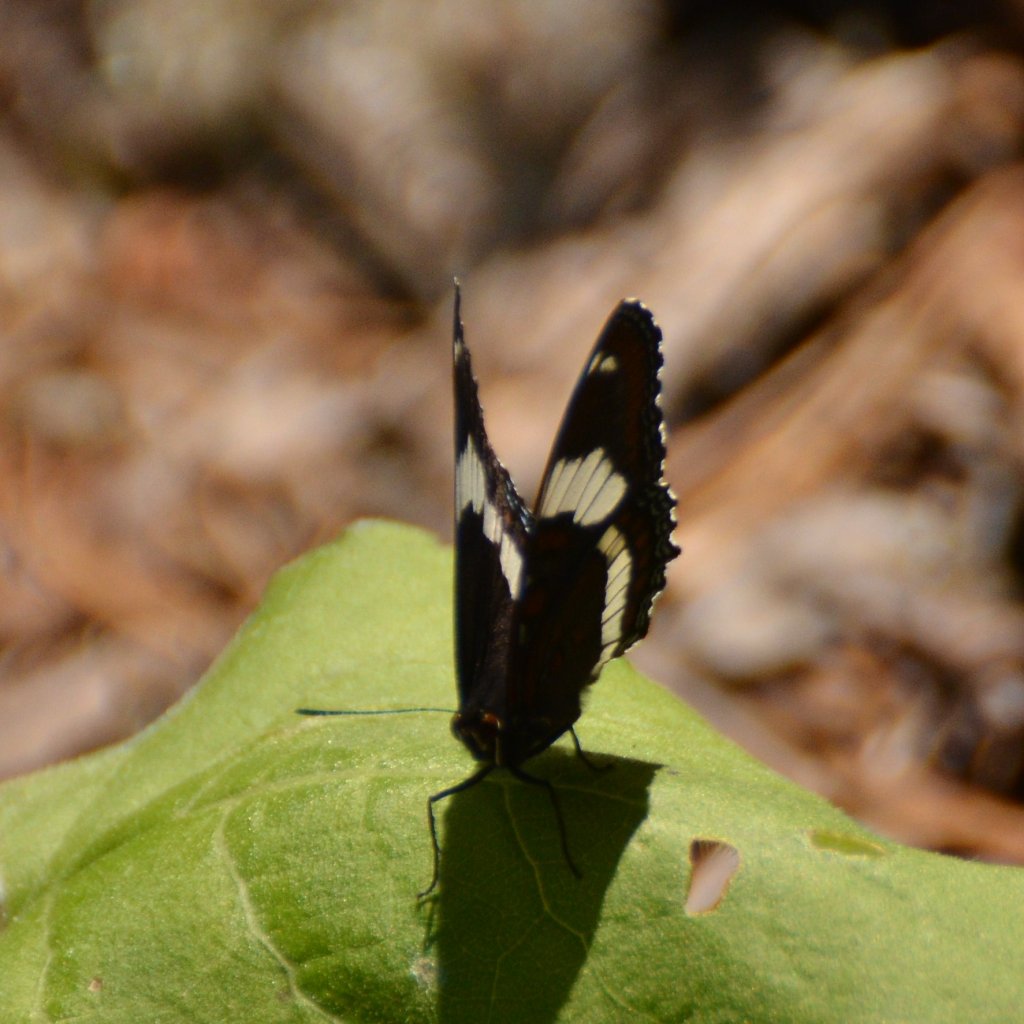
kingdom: Animalia
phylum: Arthropoda
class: Insecta
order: Lepidoptera
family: Nymphalidae
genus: Limenitis
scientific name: Limenitis arthemis
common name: Red-spotted Admiral
